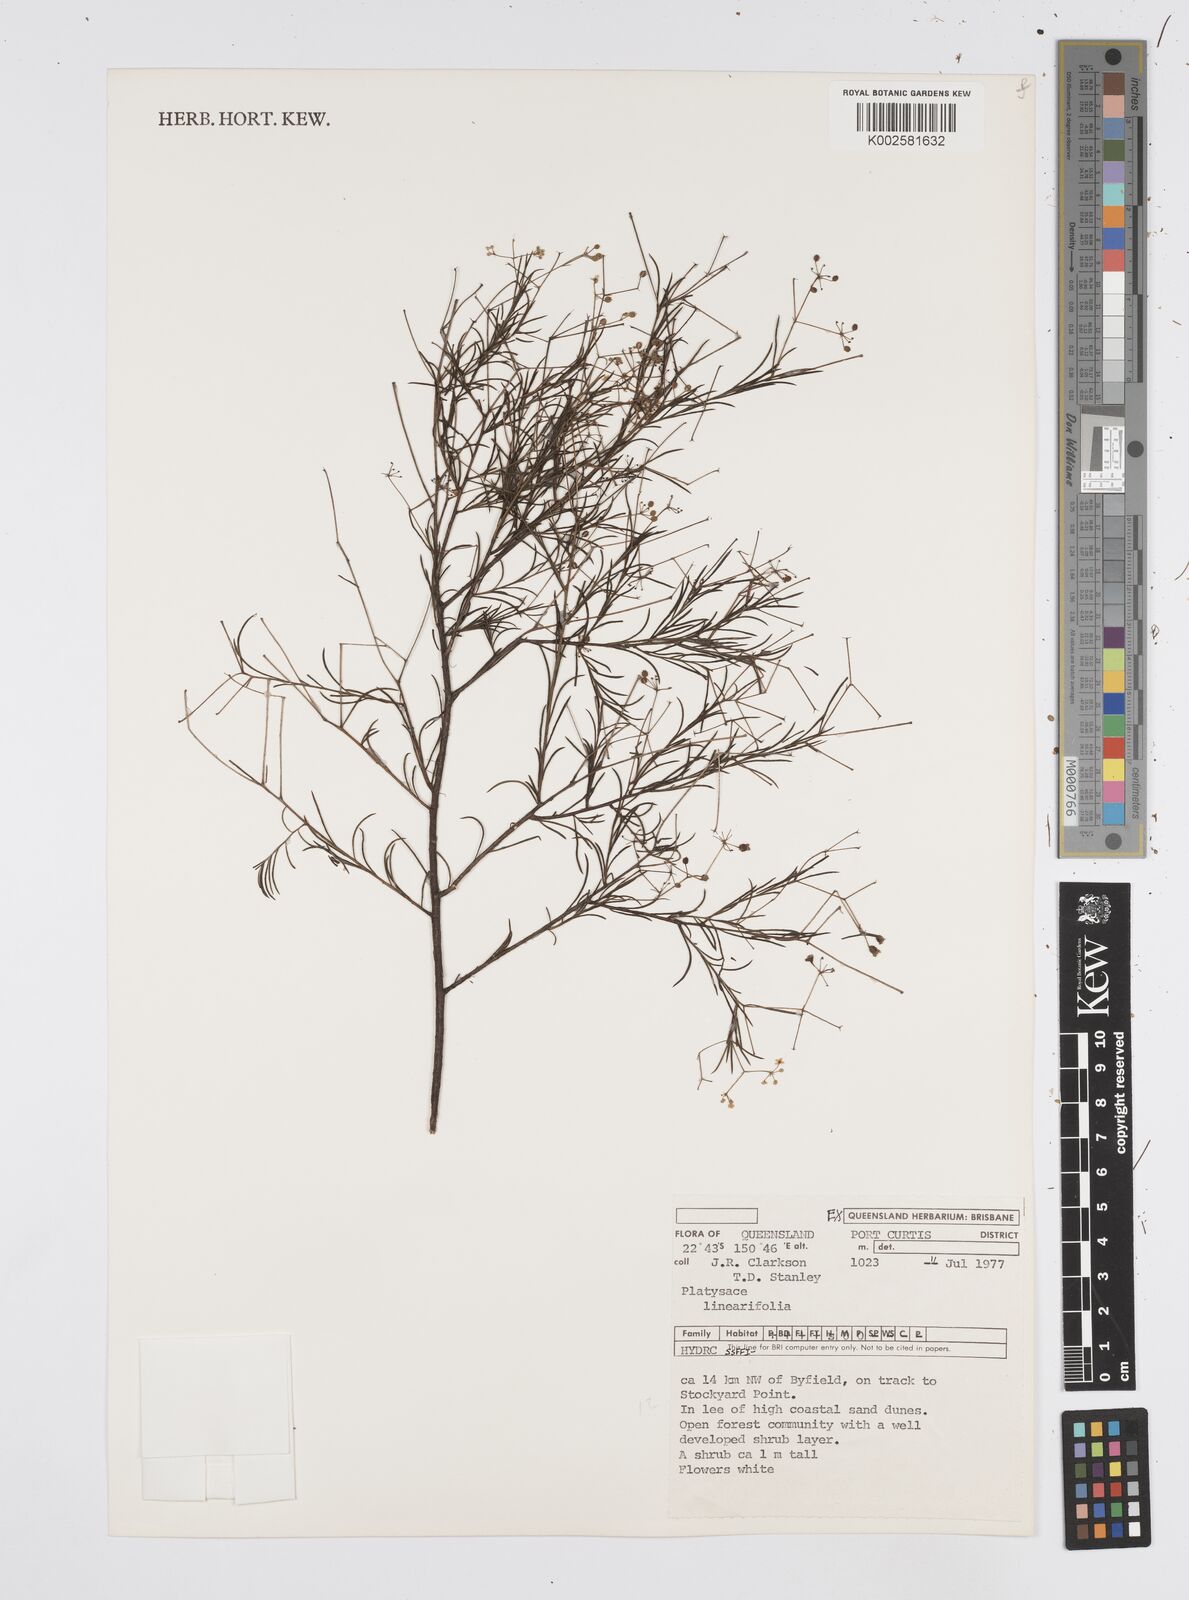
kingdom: Plantae
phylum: Tracheophyta
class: Magnoliopsida
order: Apiales
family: Apiaceae
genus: Platysace
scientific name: Platysace linearifolia
